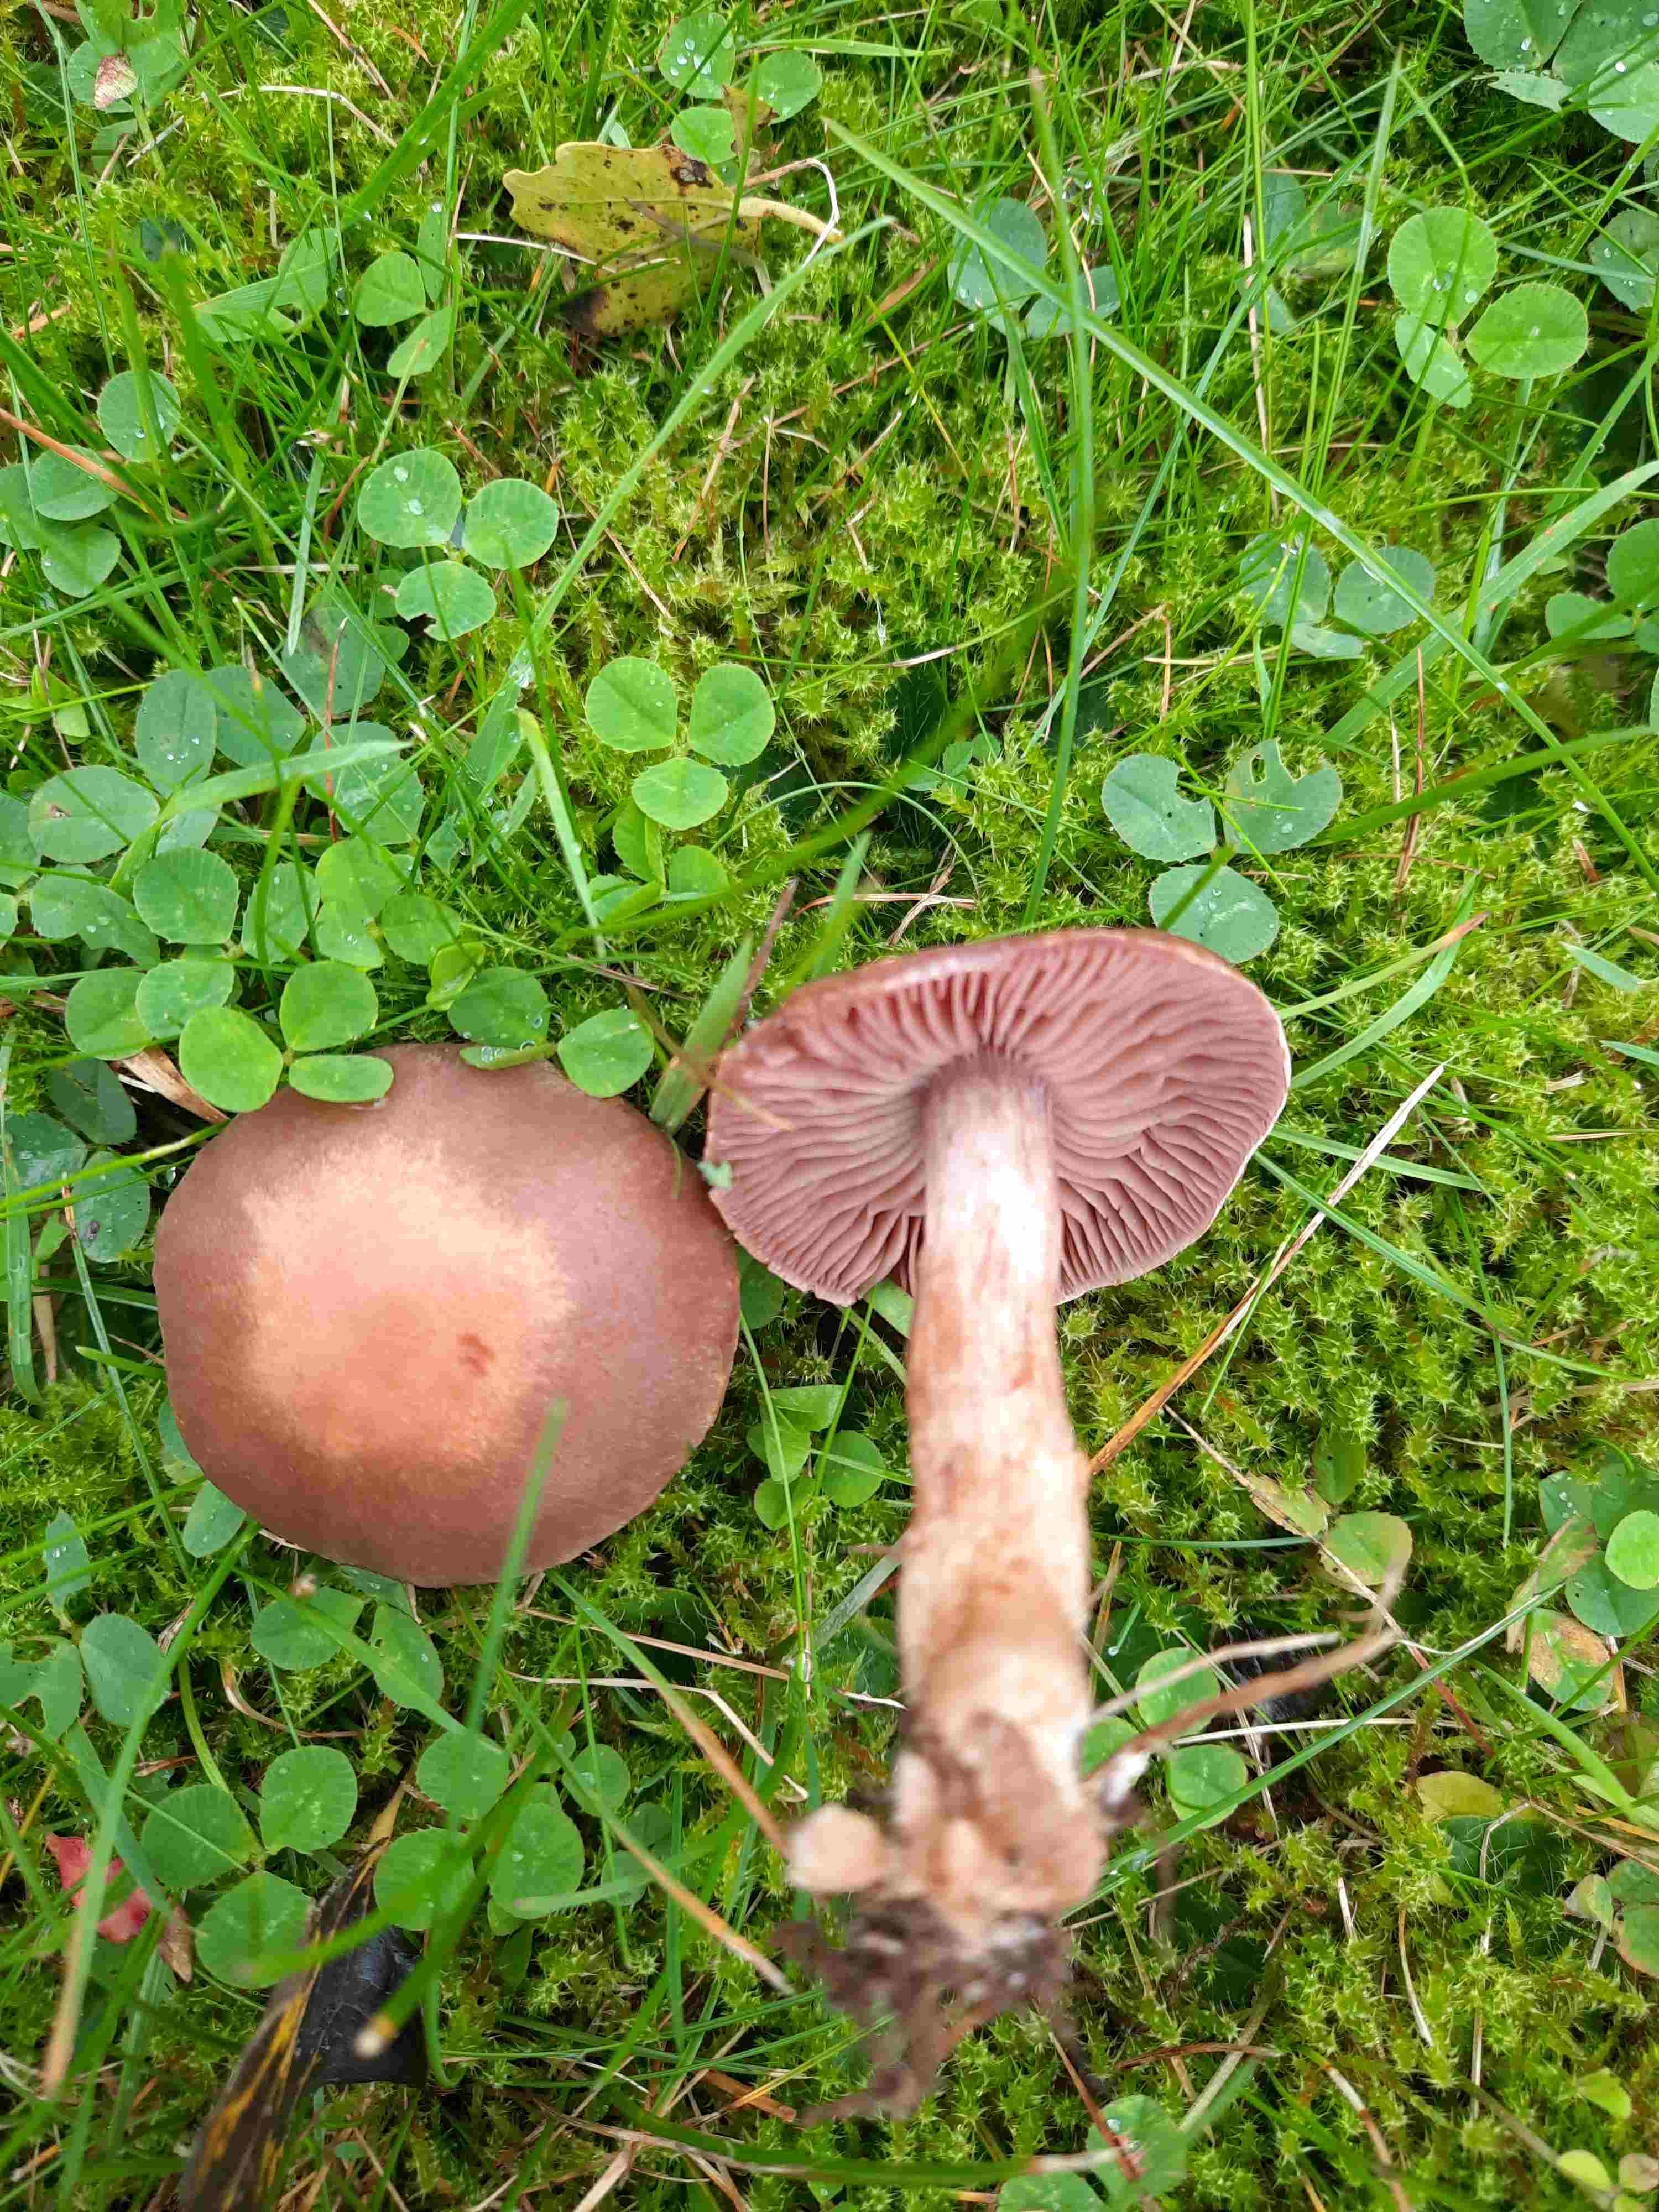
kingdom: Fungi
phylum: Basidiomycota
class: Agaricomycetes
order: Agaricales
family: Cortinariaceae
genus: Cortinarius
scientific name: Cortinarius lucorum
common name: aspe-slørhat
